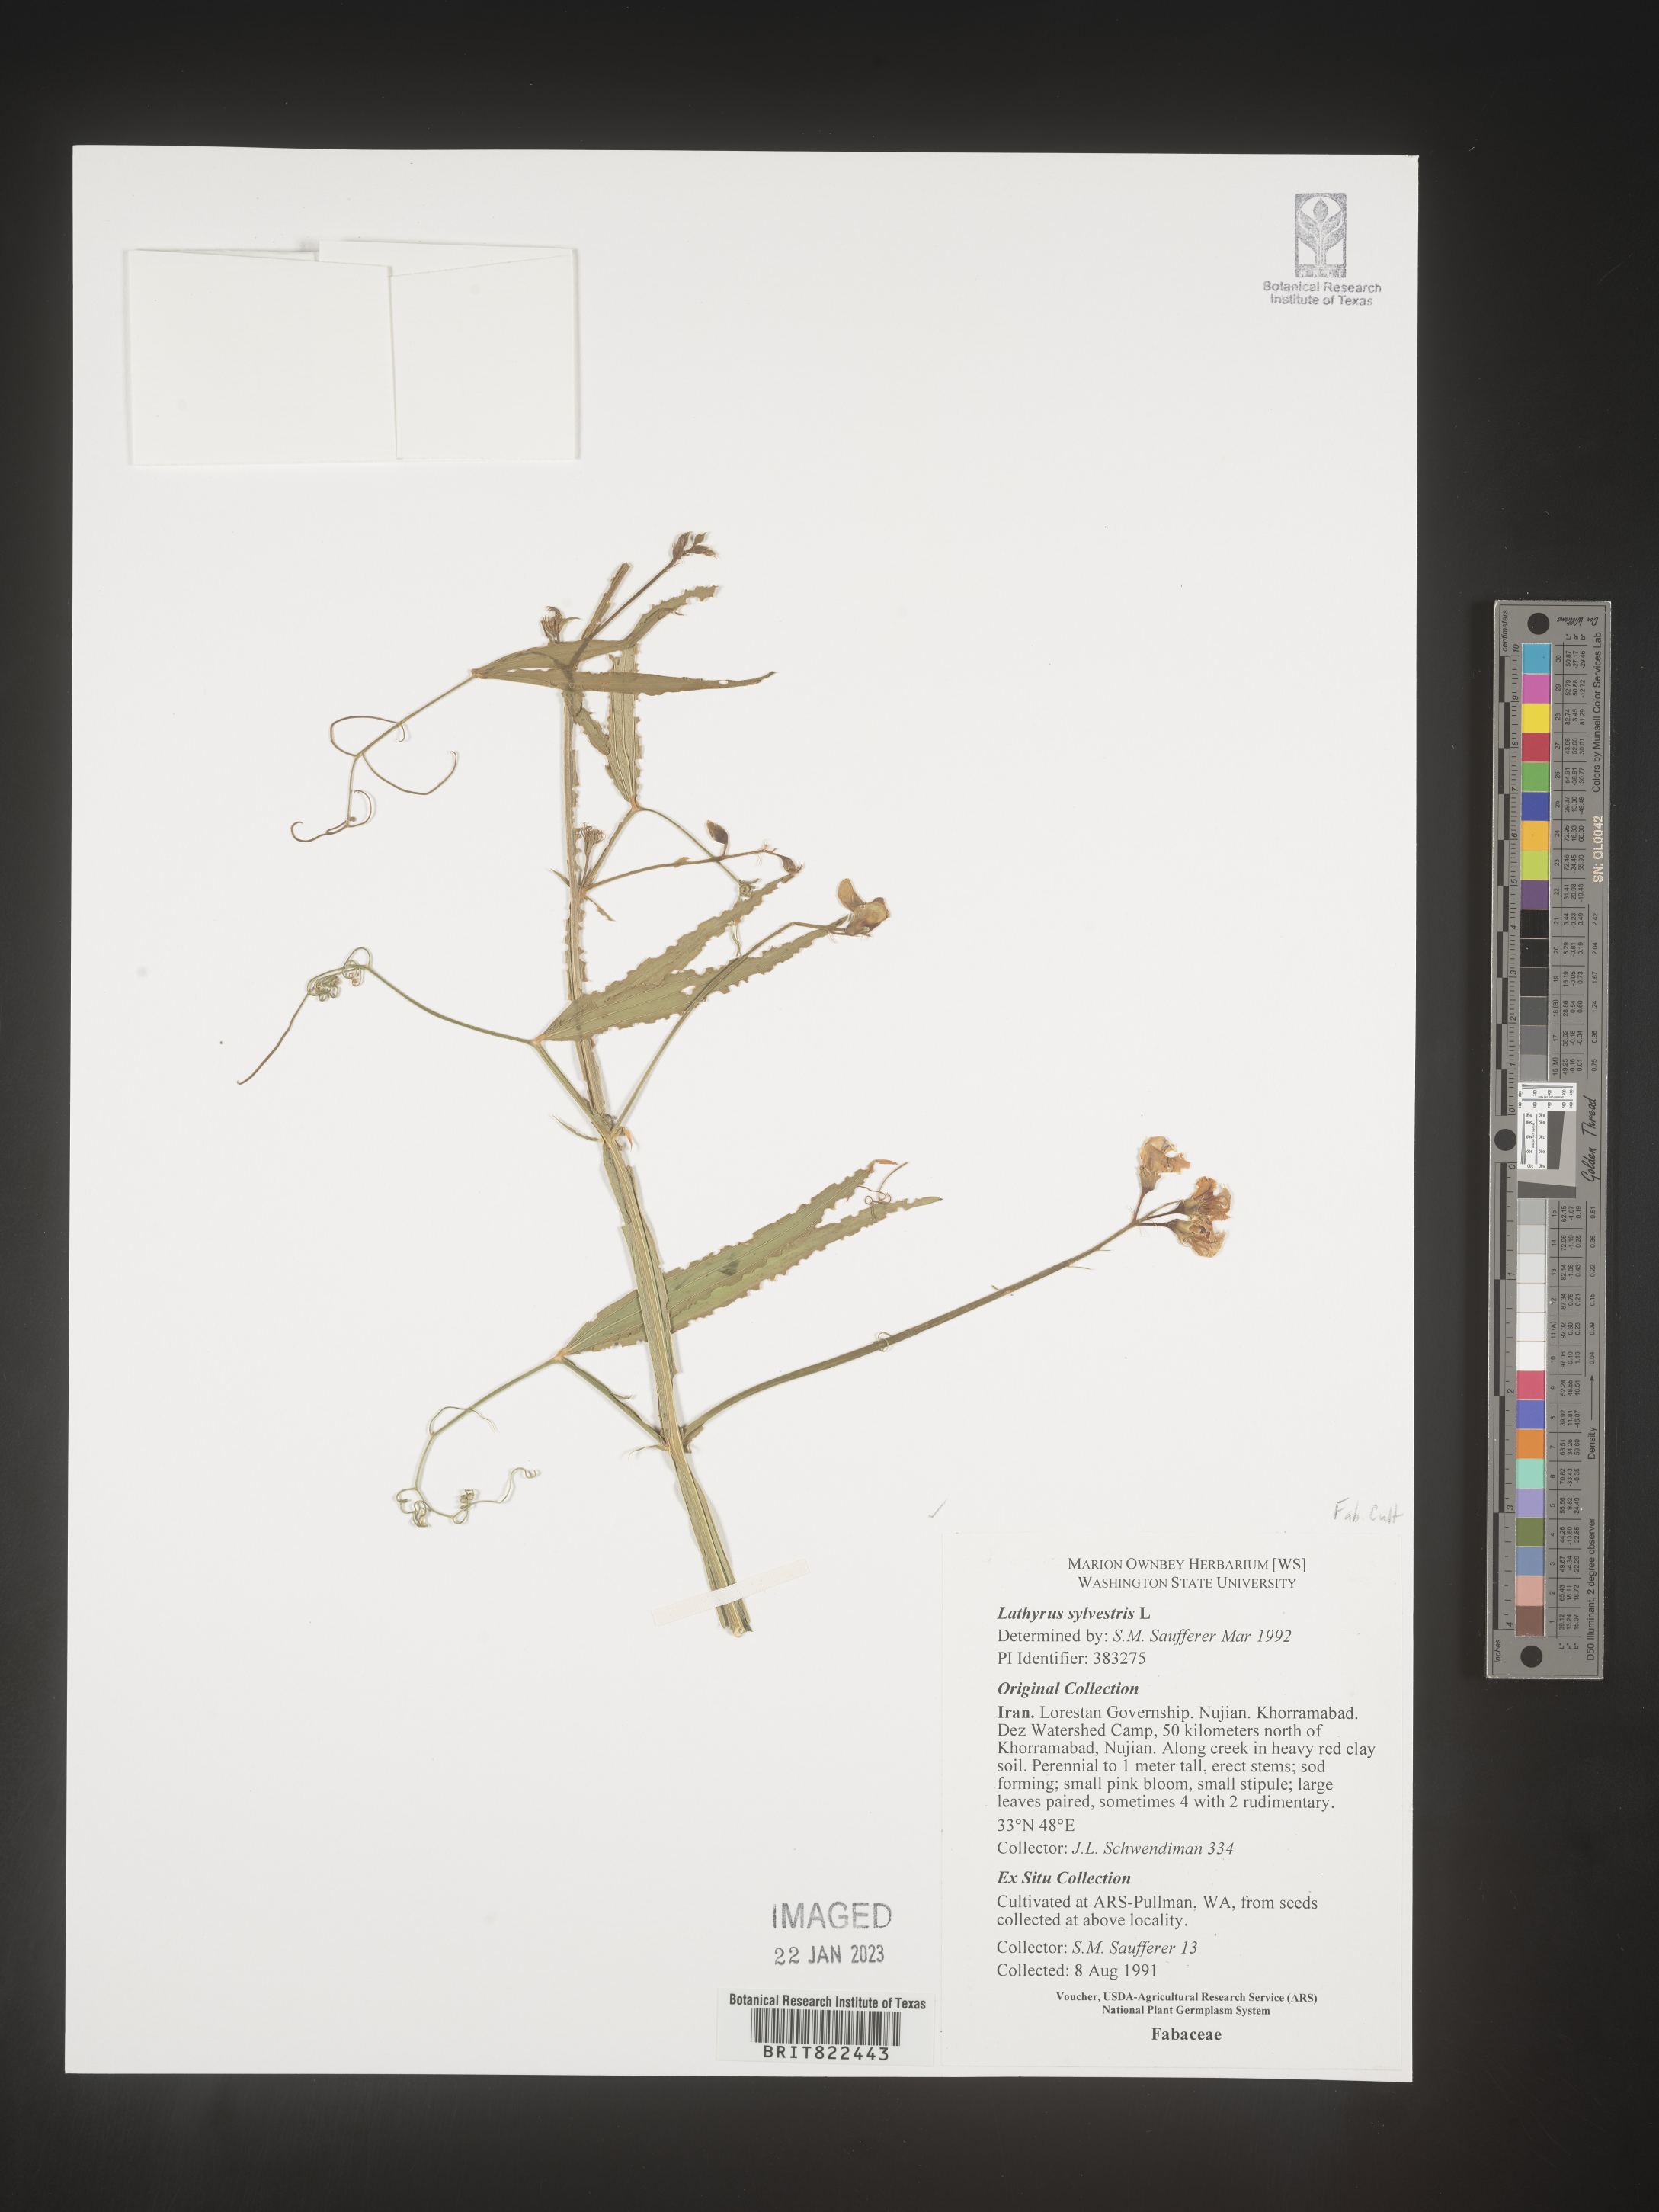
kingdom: Plantae
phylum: Tracheophyta
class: Magnoliopsida
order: Fabales
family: Fabaceae
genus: Lathyrus
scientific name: Lathyrus
